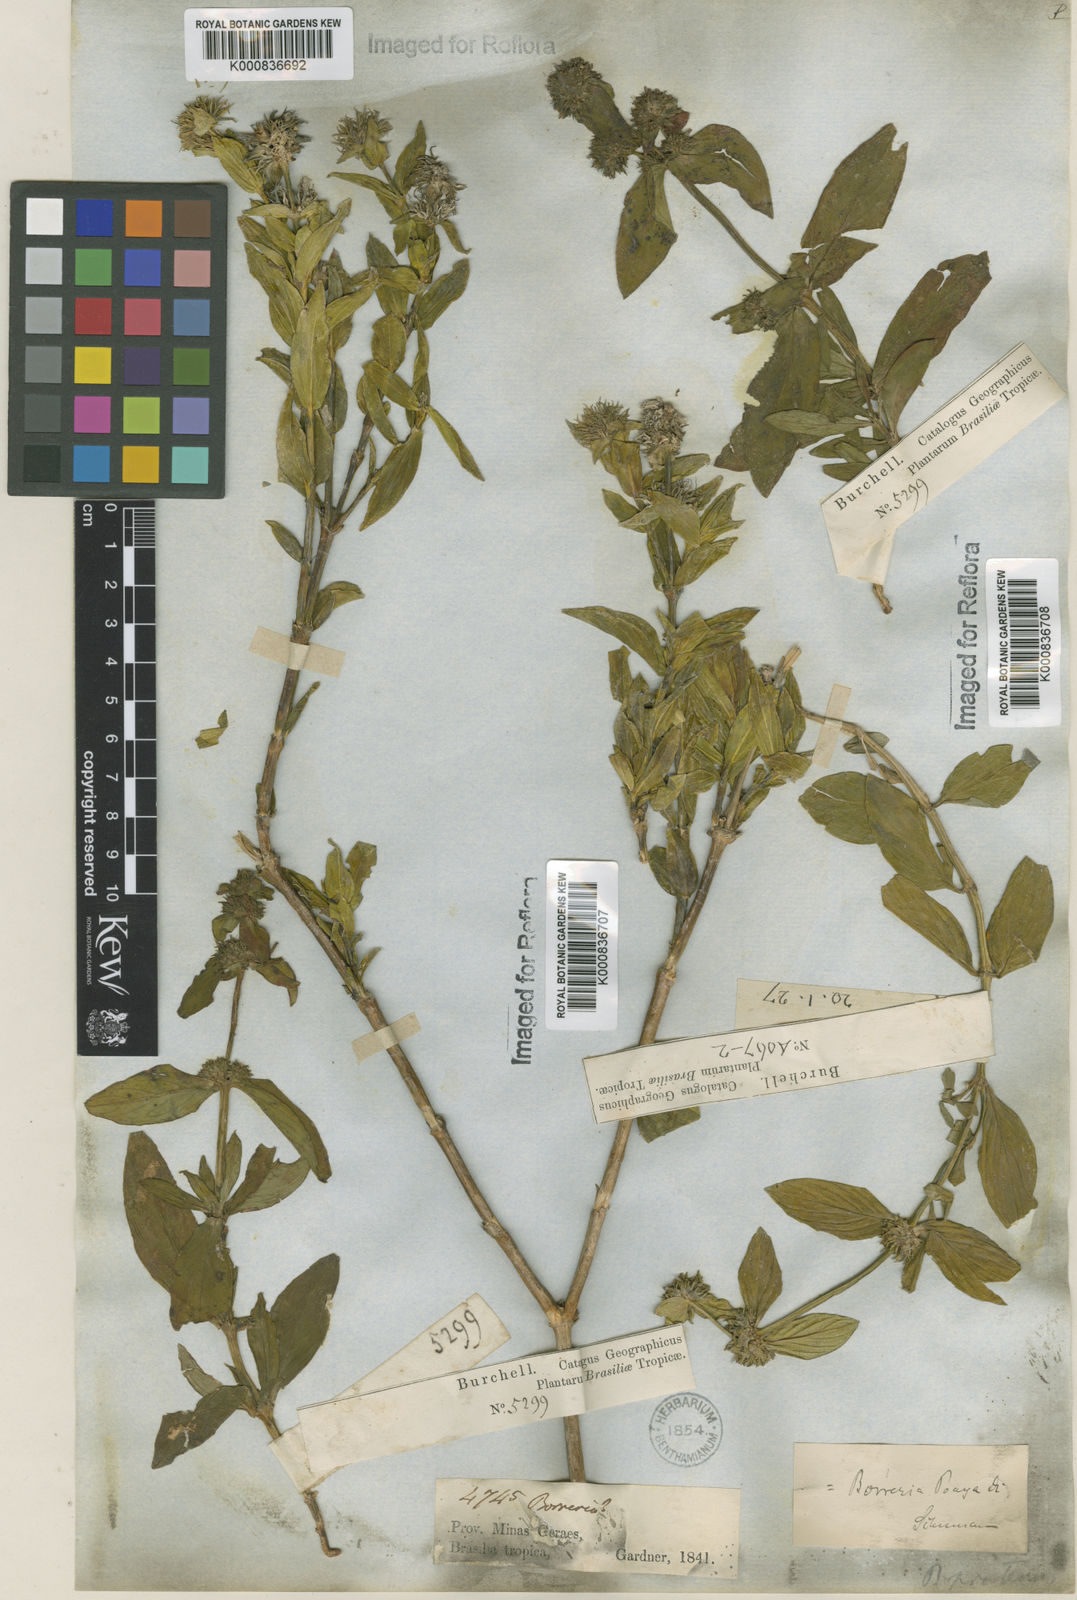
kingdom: Plantae
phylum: Tracheophyta
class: Magnoliopsida
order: Gentianales
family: Rubiaceae
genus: Spermacoce
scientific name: Spermacoce poaya
